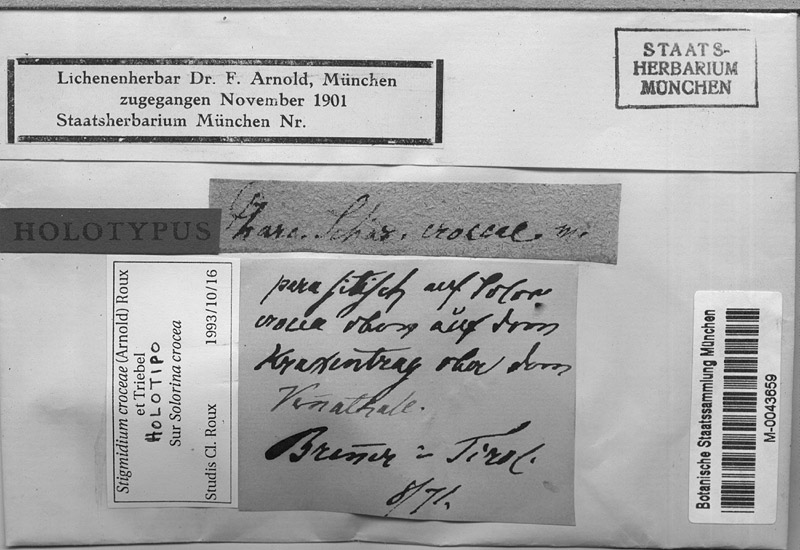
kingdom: Fungi
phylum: Ascomycota
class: Dothideomycetes
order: Mycosphaerellales
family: Mycosphaerellaceae
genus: Stigmidium
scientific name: Stigmidium croceae
